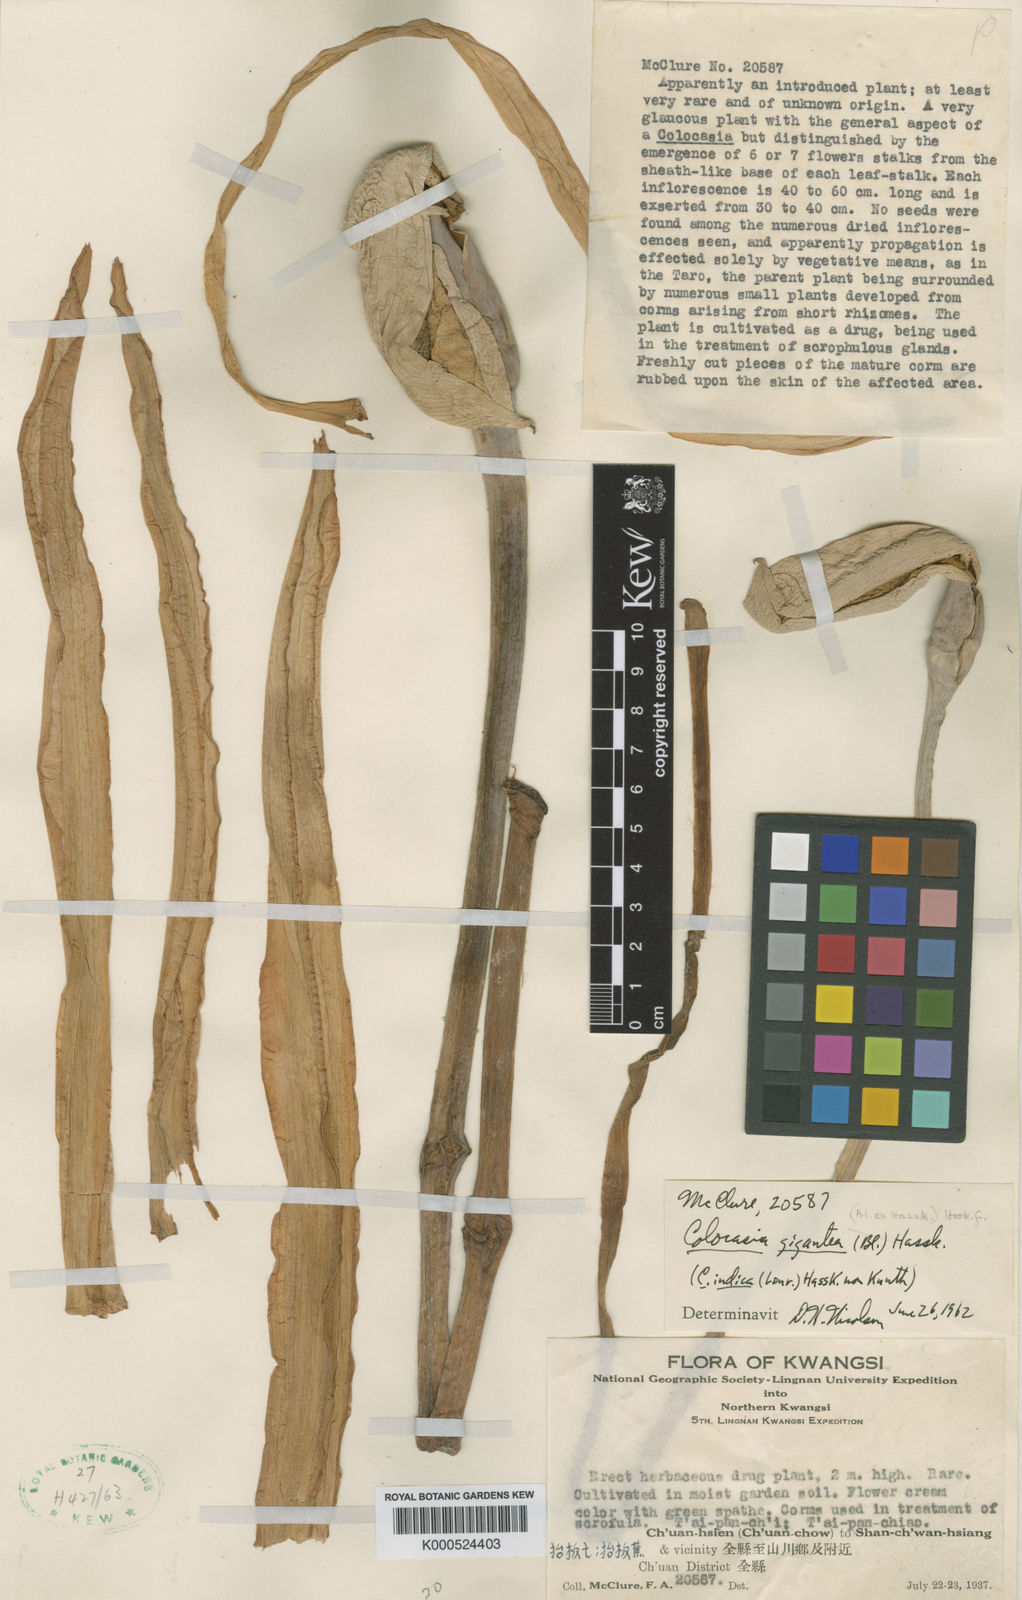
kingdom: Plantae
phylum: Tracheophyta
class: Liliopsida
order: Alismatales
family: Araceae
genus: Leucocasia
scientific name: Leucocasia gigantea
